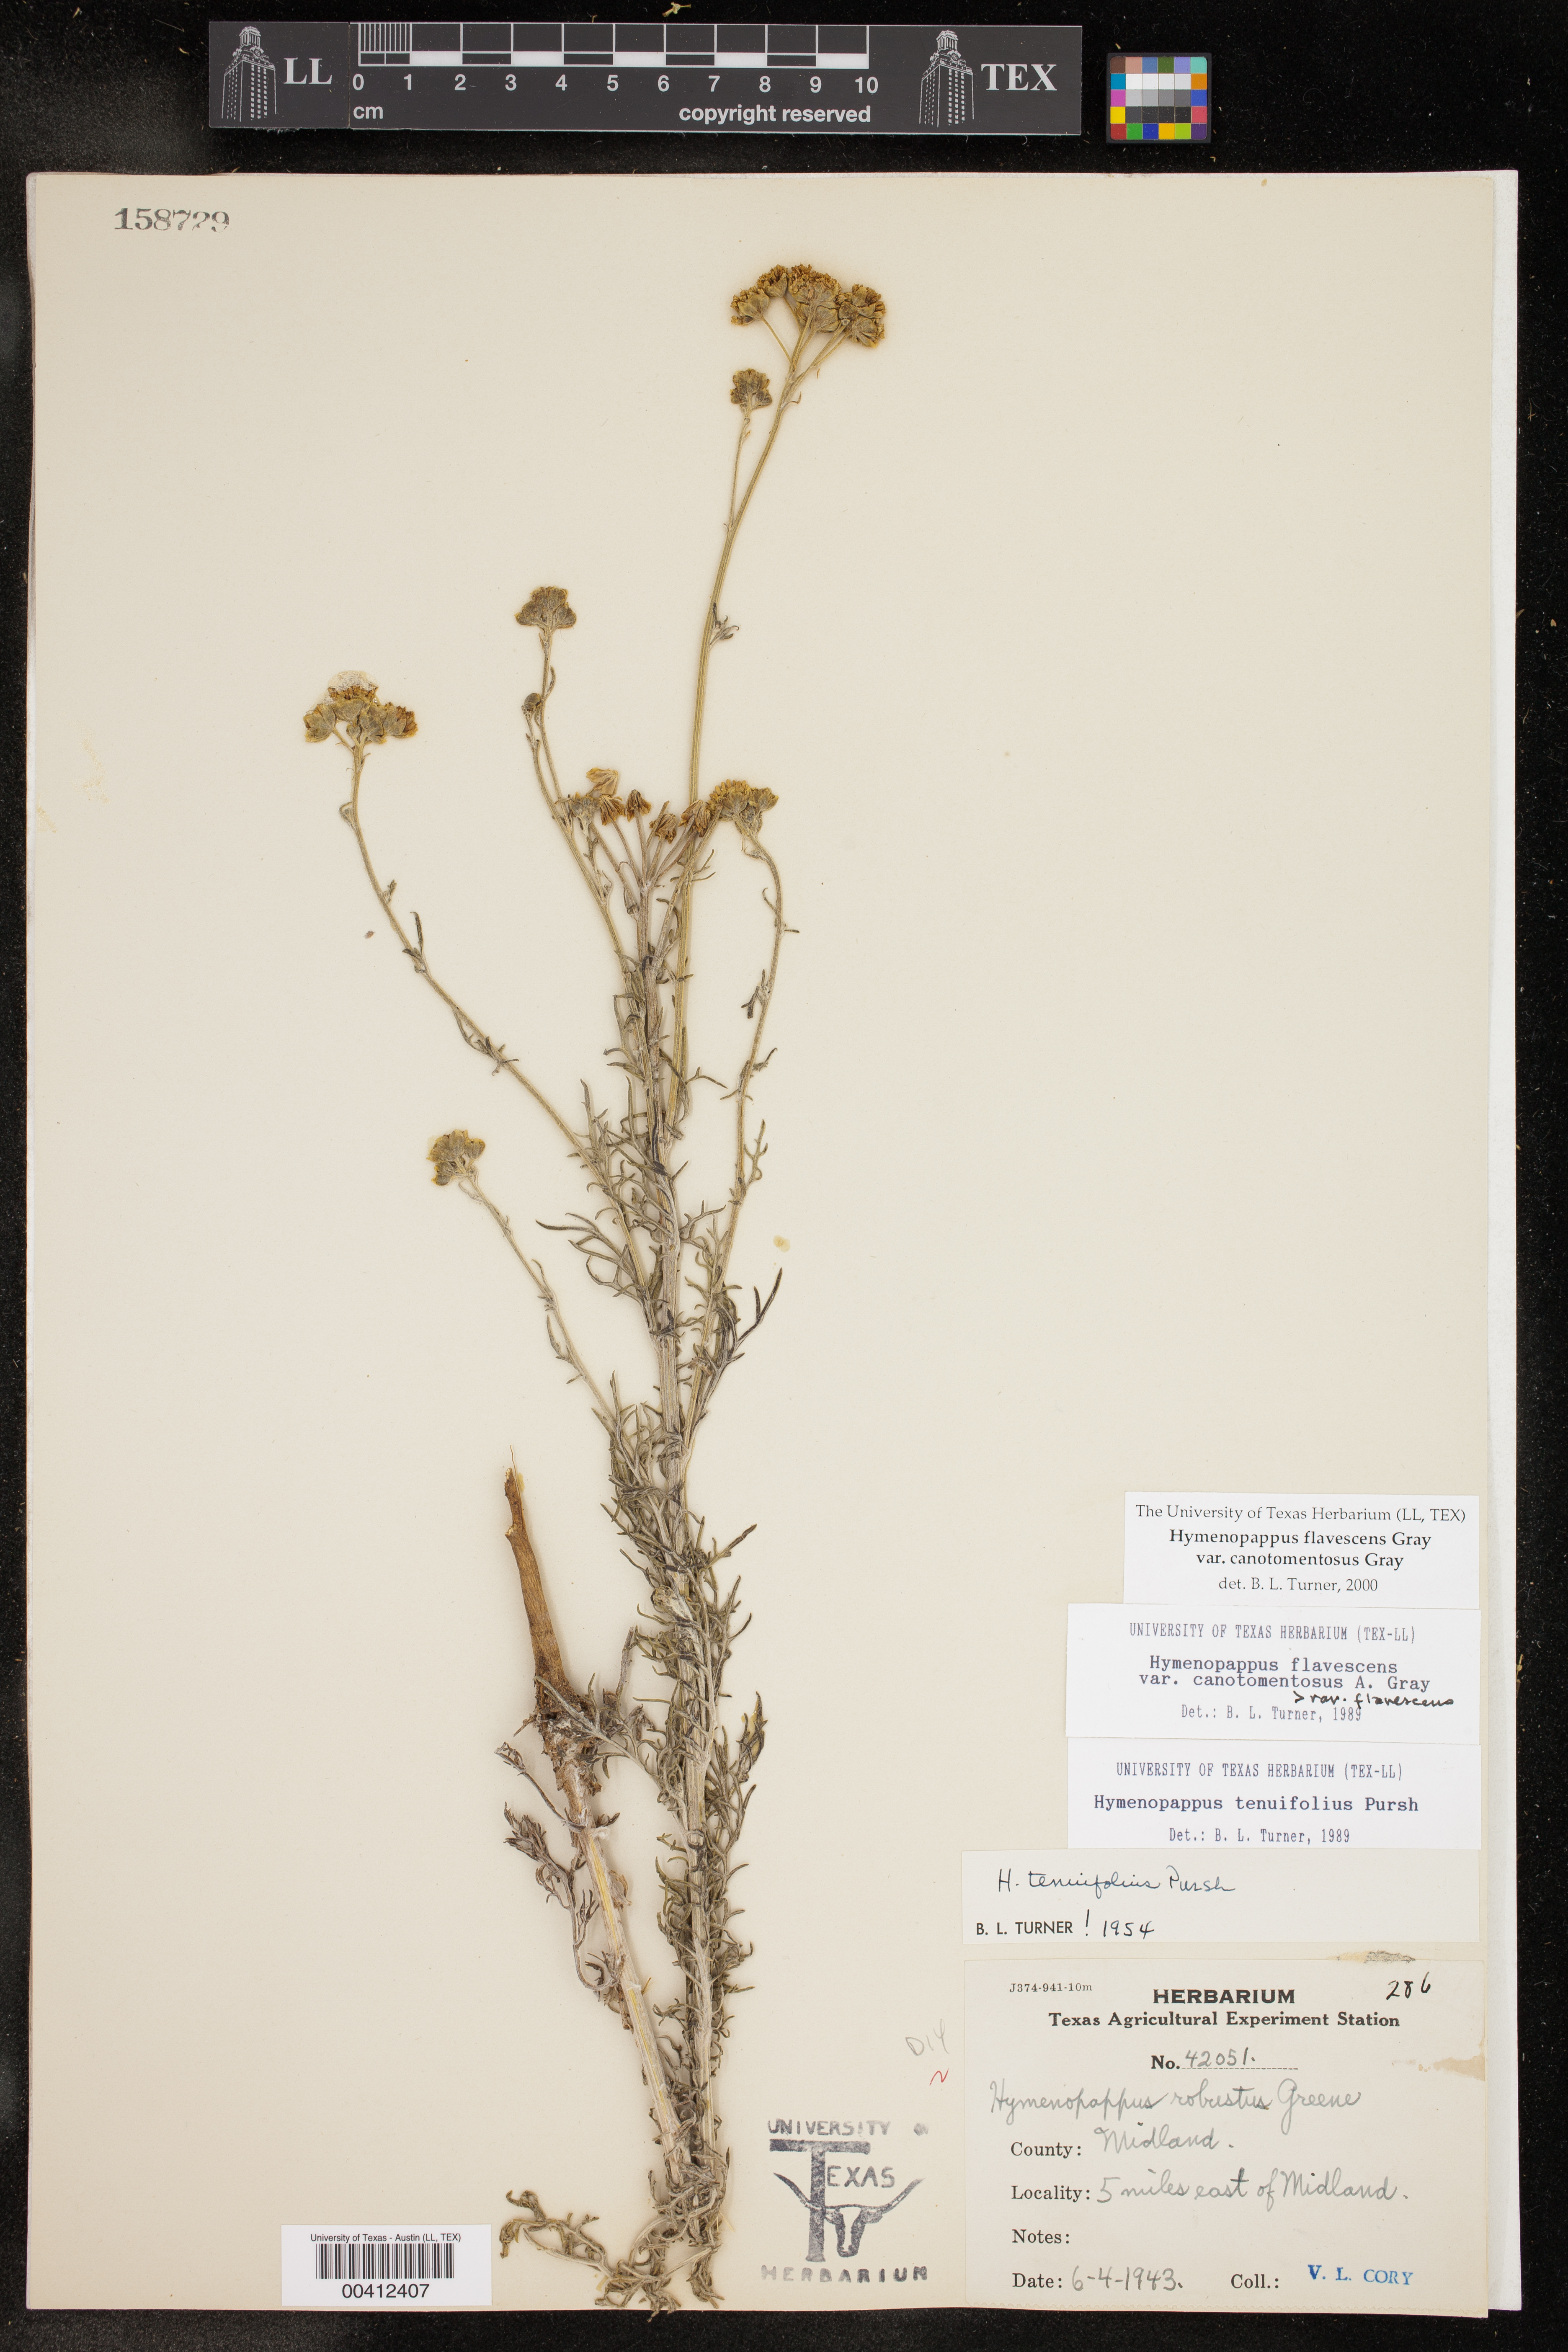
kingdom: Plantae
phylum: Tracheophyta
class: Magnoliopsida
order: Asterales
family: Asteraceae
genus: Hymenopappus
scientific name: Hymenopappus flavescens
